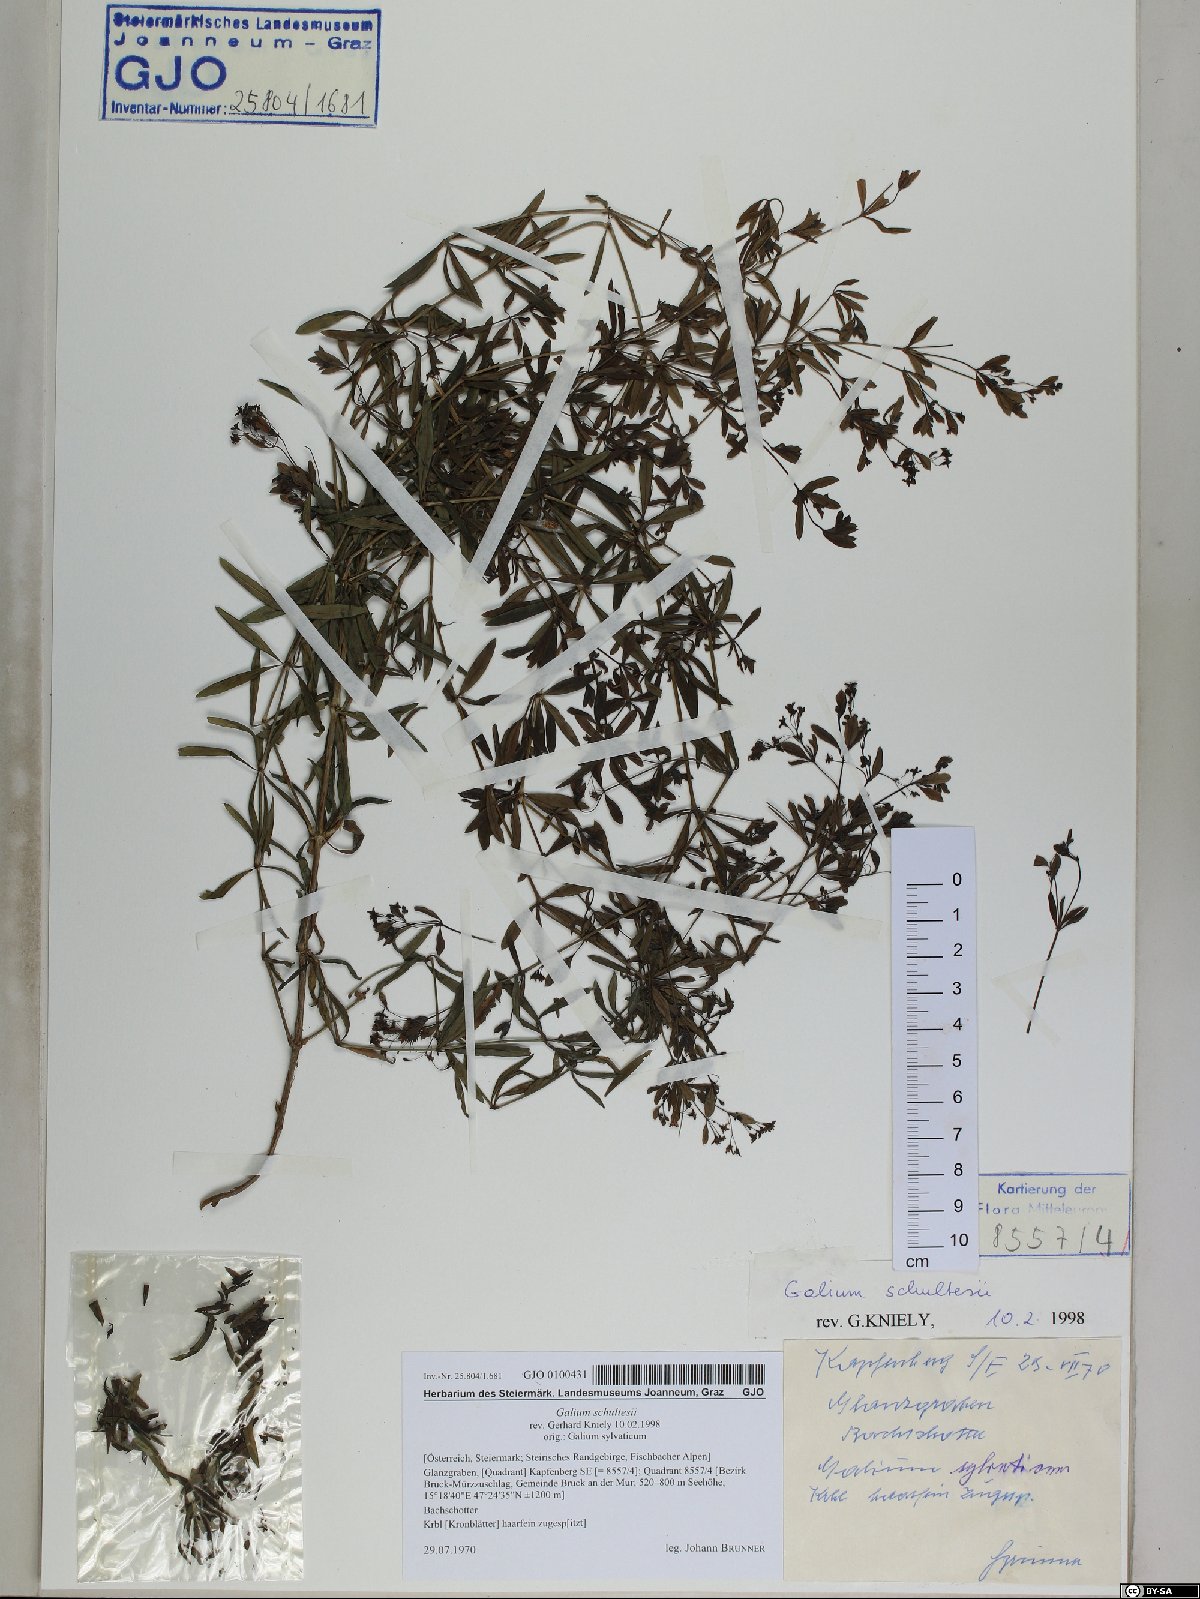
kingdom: Plantae
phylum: Tracheophyta
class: Magnoliopsida
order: Gentianales
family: Rubiaceae
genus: Galium
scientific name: Galium intermedium
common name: Bedstraw
